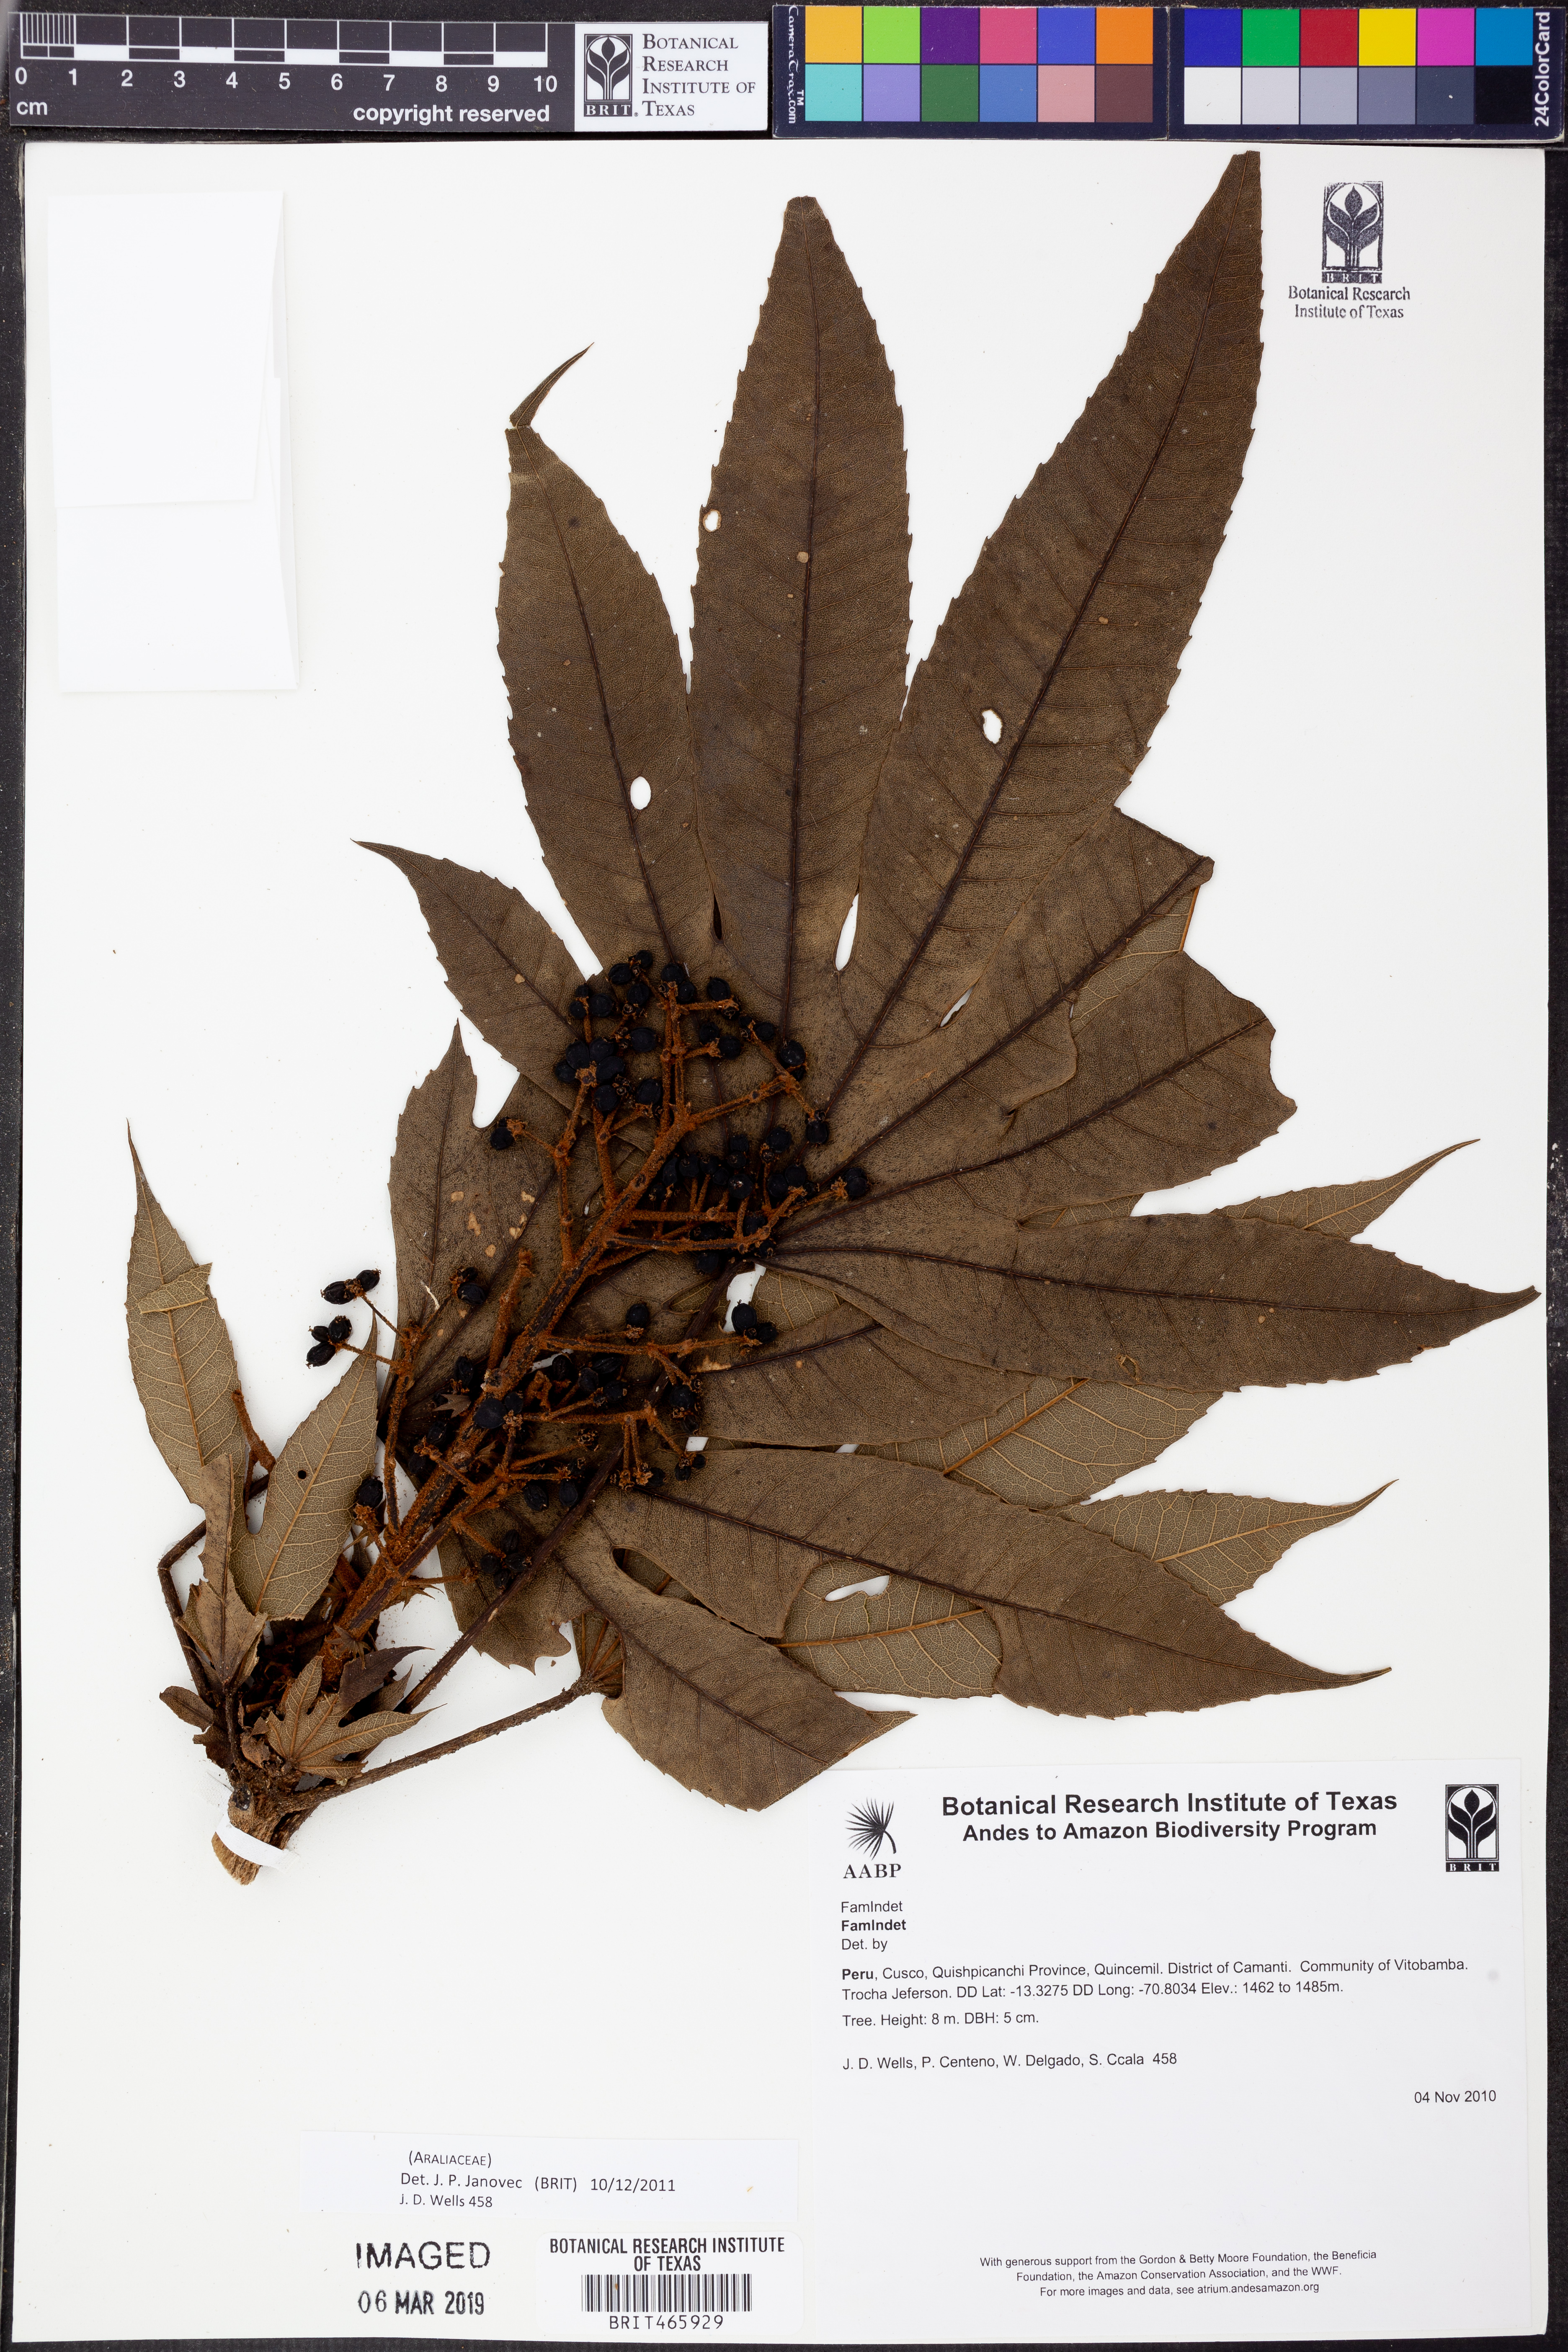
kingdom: Plantae
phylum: Tracheophyta
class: Magnoliopsida
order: Apiales
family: Araliaceae
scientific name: Araliaceae
